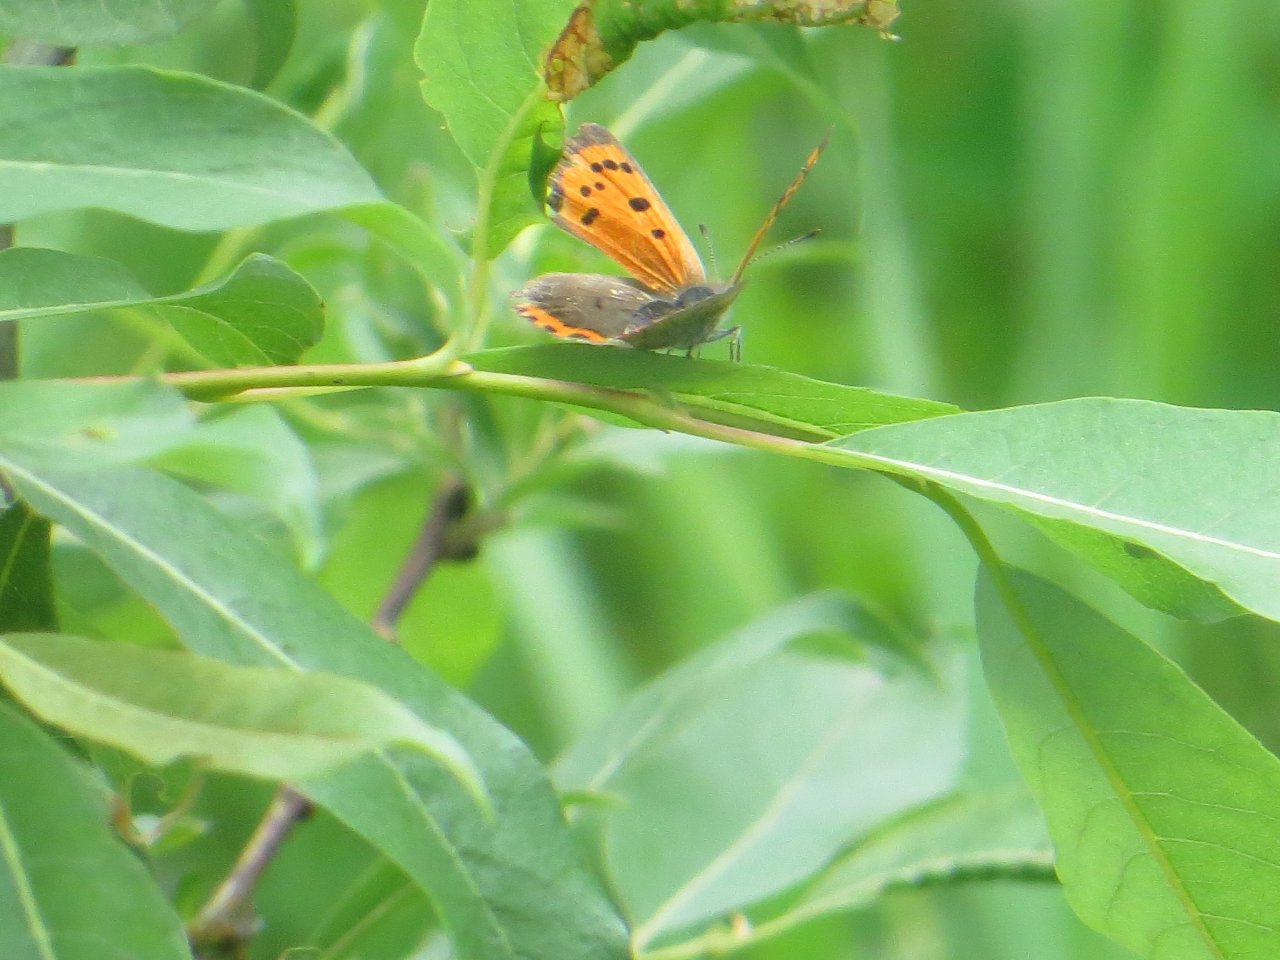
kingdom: Animalia
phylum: Arthropoda
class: Insecta
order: Lepidoptera
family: Lycaenidae
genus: Lycaena
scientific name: Lycaena phlaeas
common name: American Copper
